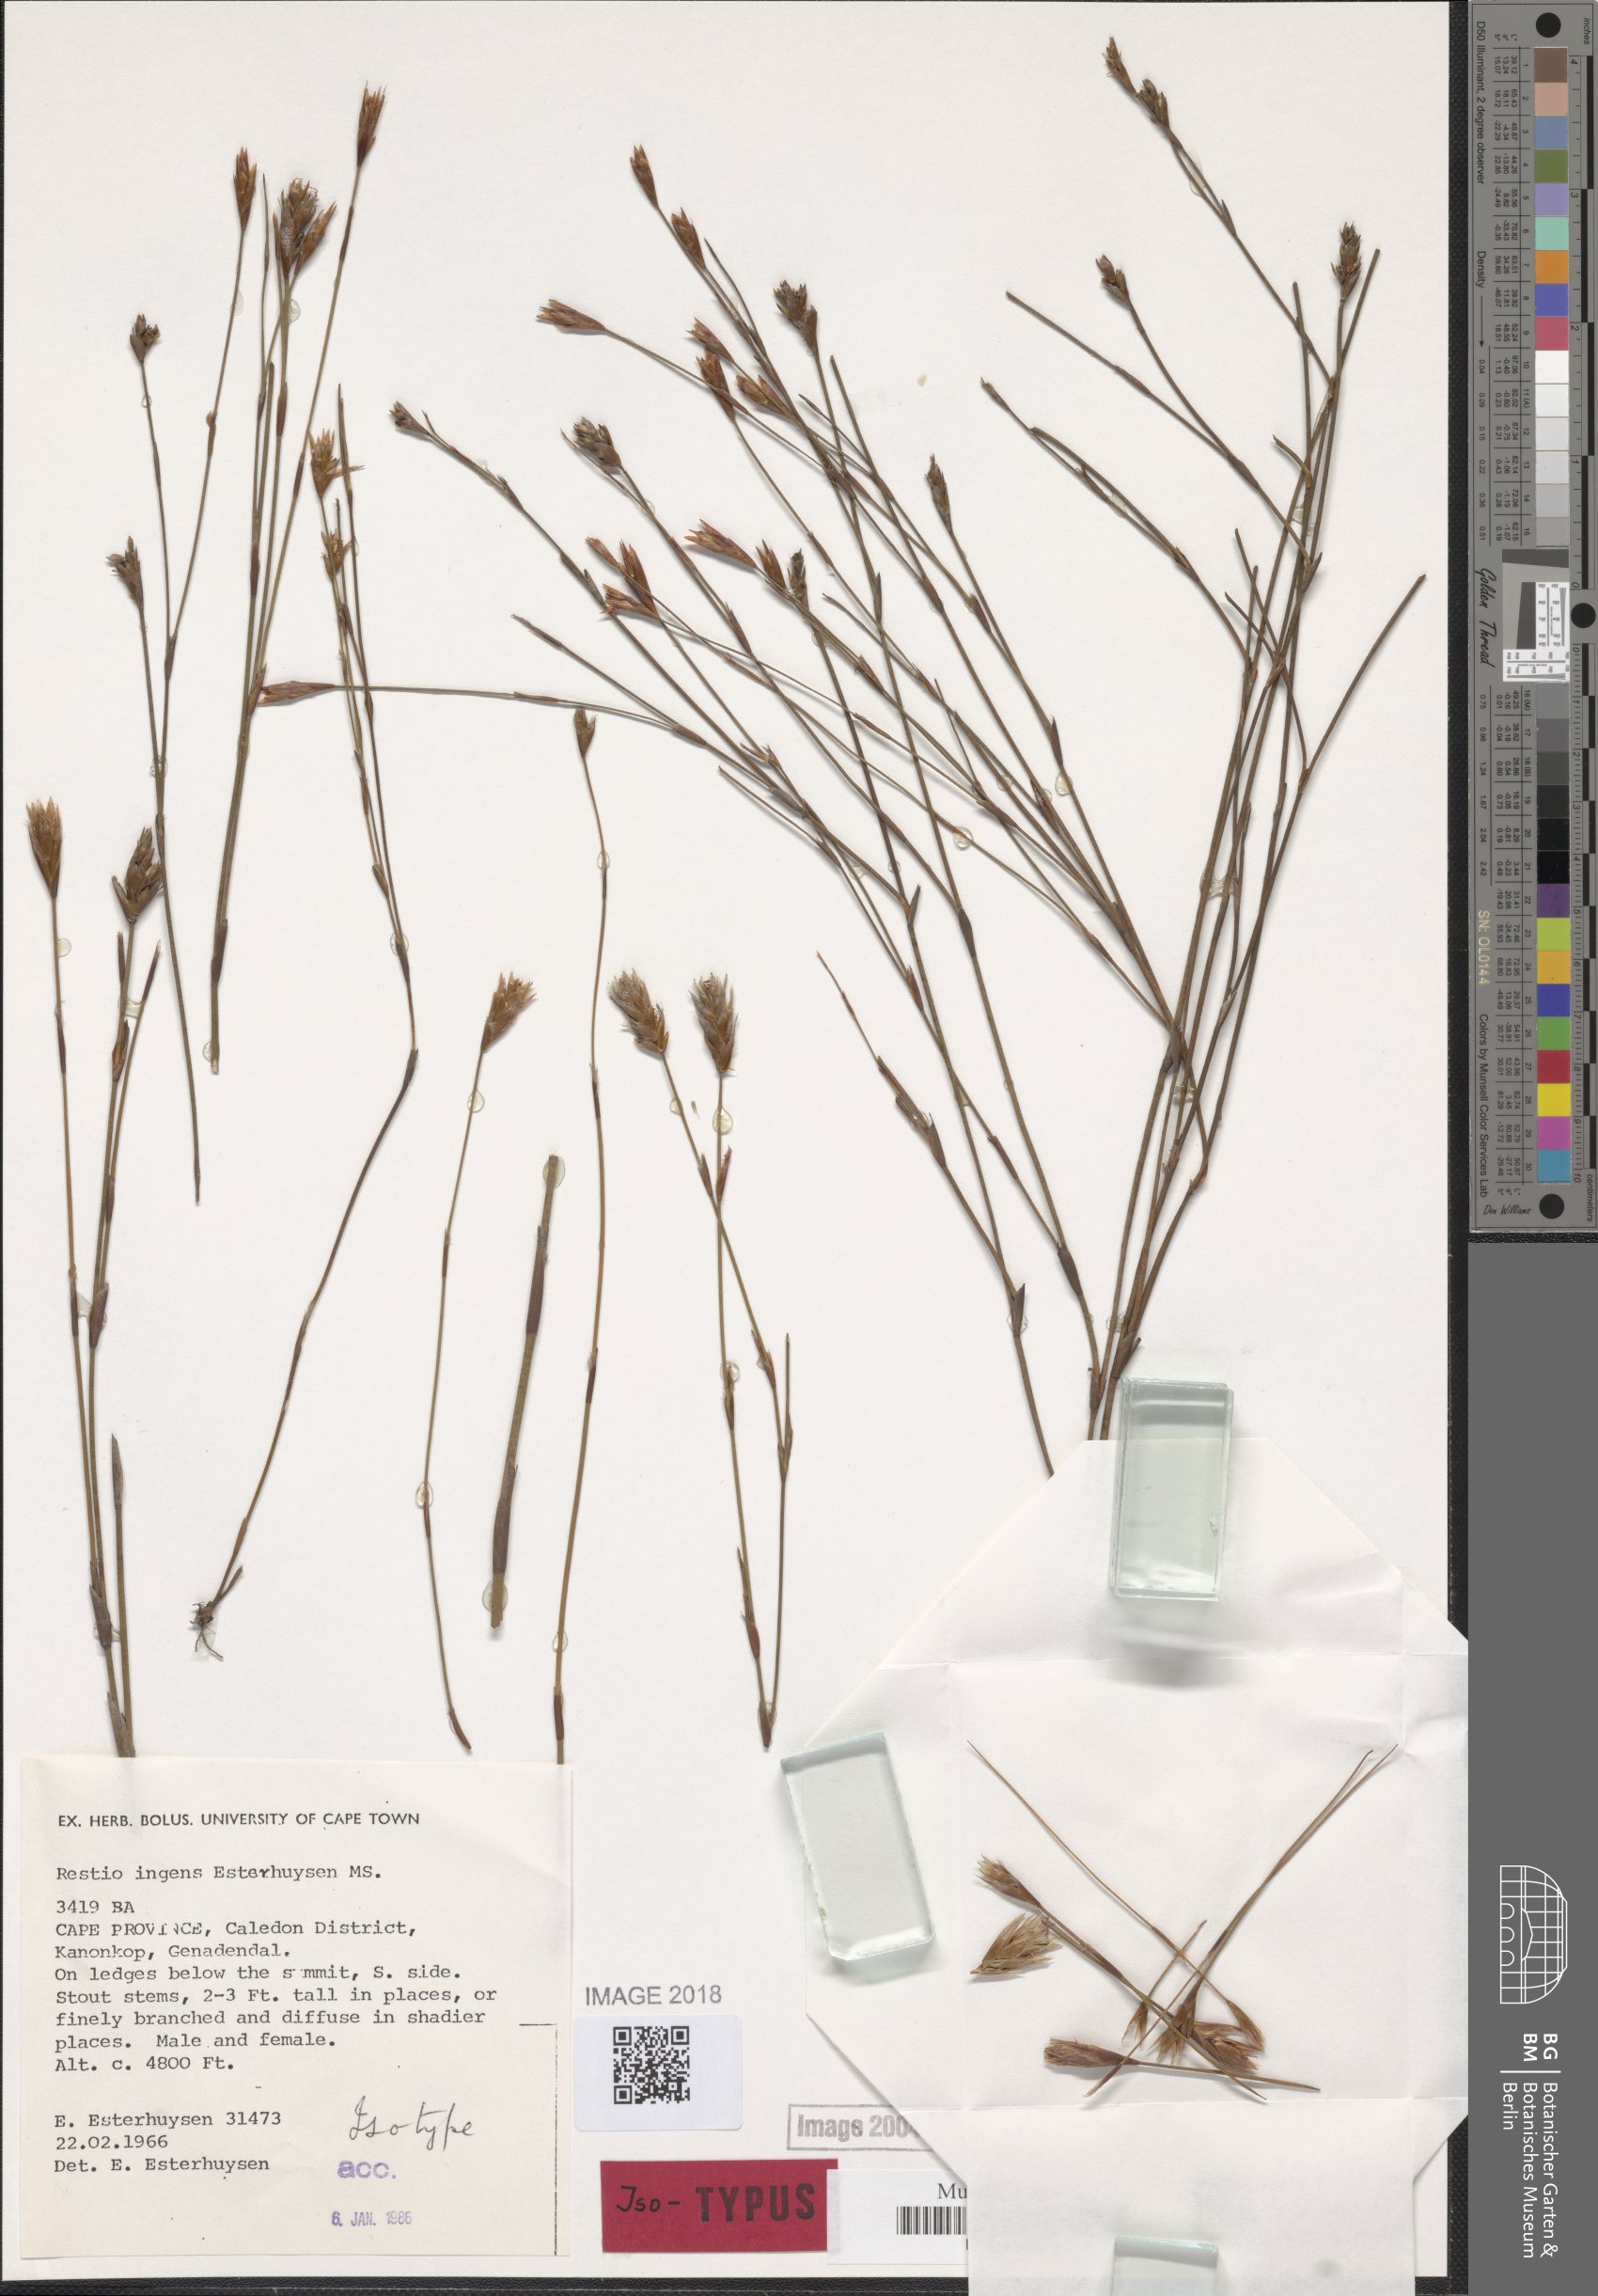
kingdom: Plantae
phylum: Tracheophyta
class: Liliopsida
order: Poales
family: Restionaceae
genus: Restio
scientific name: Restio ingens
